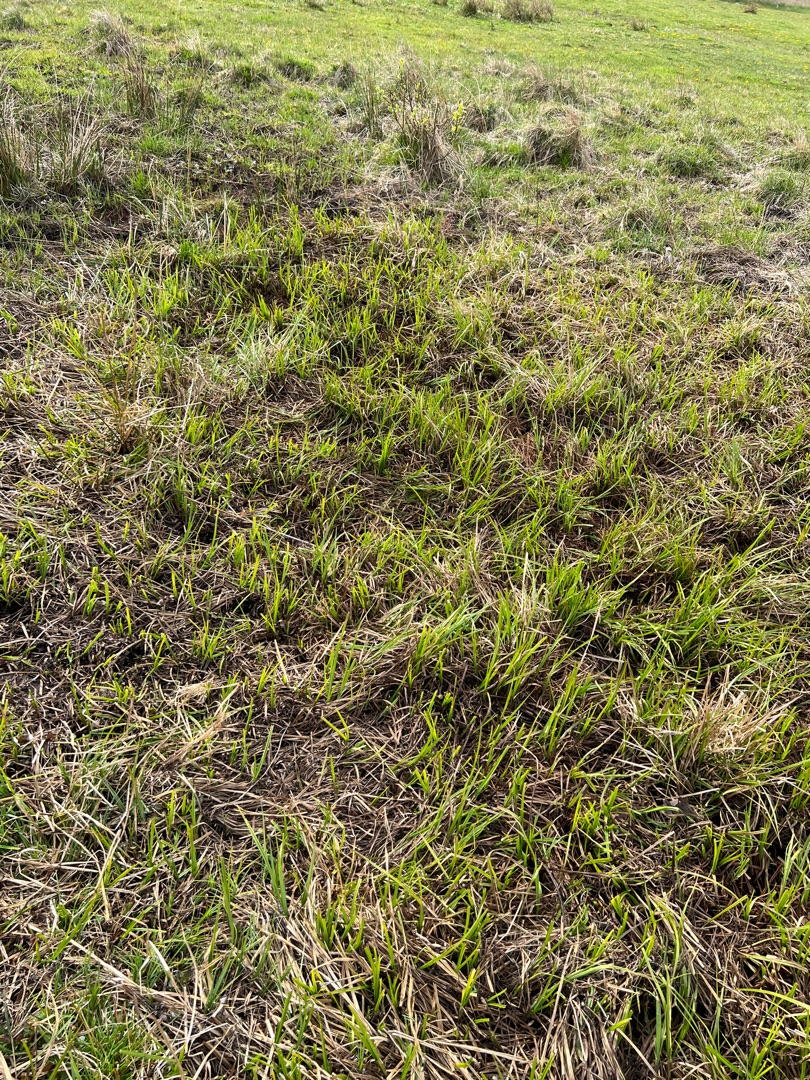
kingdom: Plantae
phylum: Tracheophyta
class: Liliopsida
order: Poales
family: Cyperaceae
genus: Carex
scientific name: Carex vesicaria
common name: Blære-star
